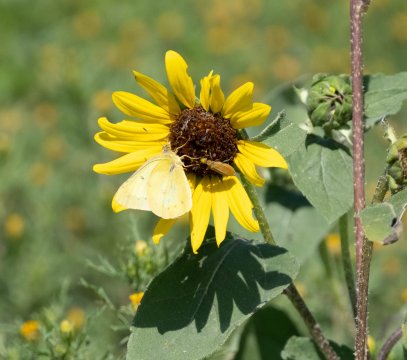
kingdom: Animalia
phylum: Arthropoda
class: Insecta
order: Lepidoptera
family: Pieridae
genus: Colias
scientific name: Colias philodice
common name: Clouded Sulphur
